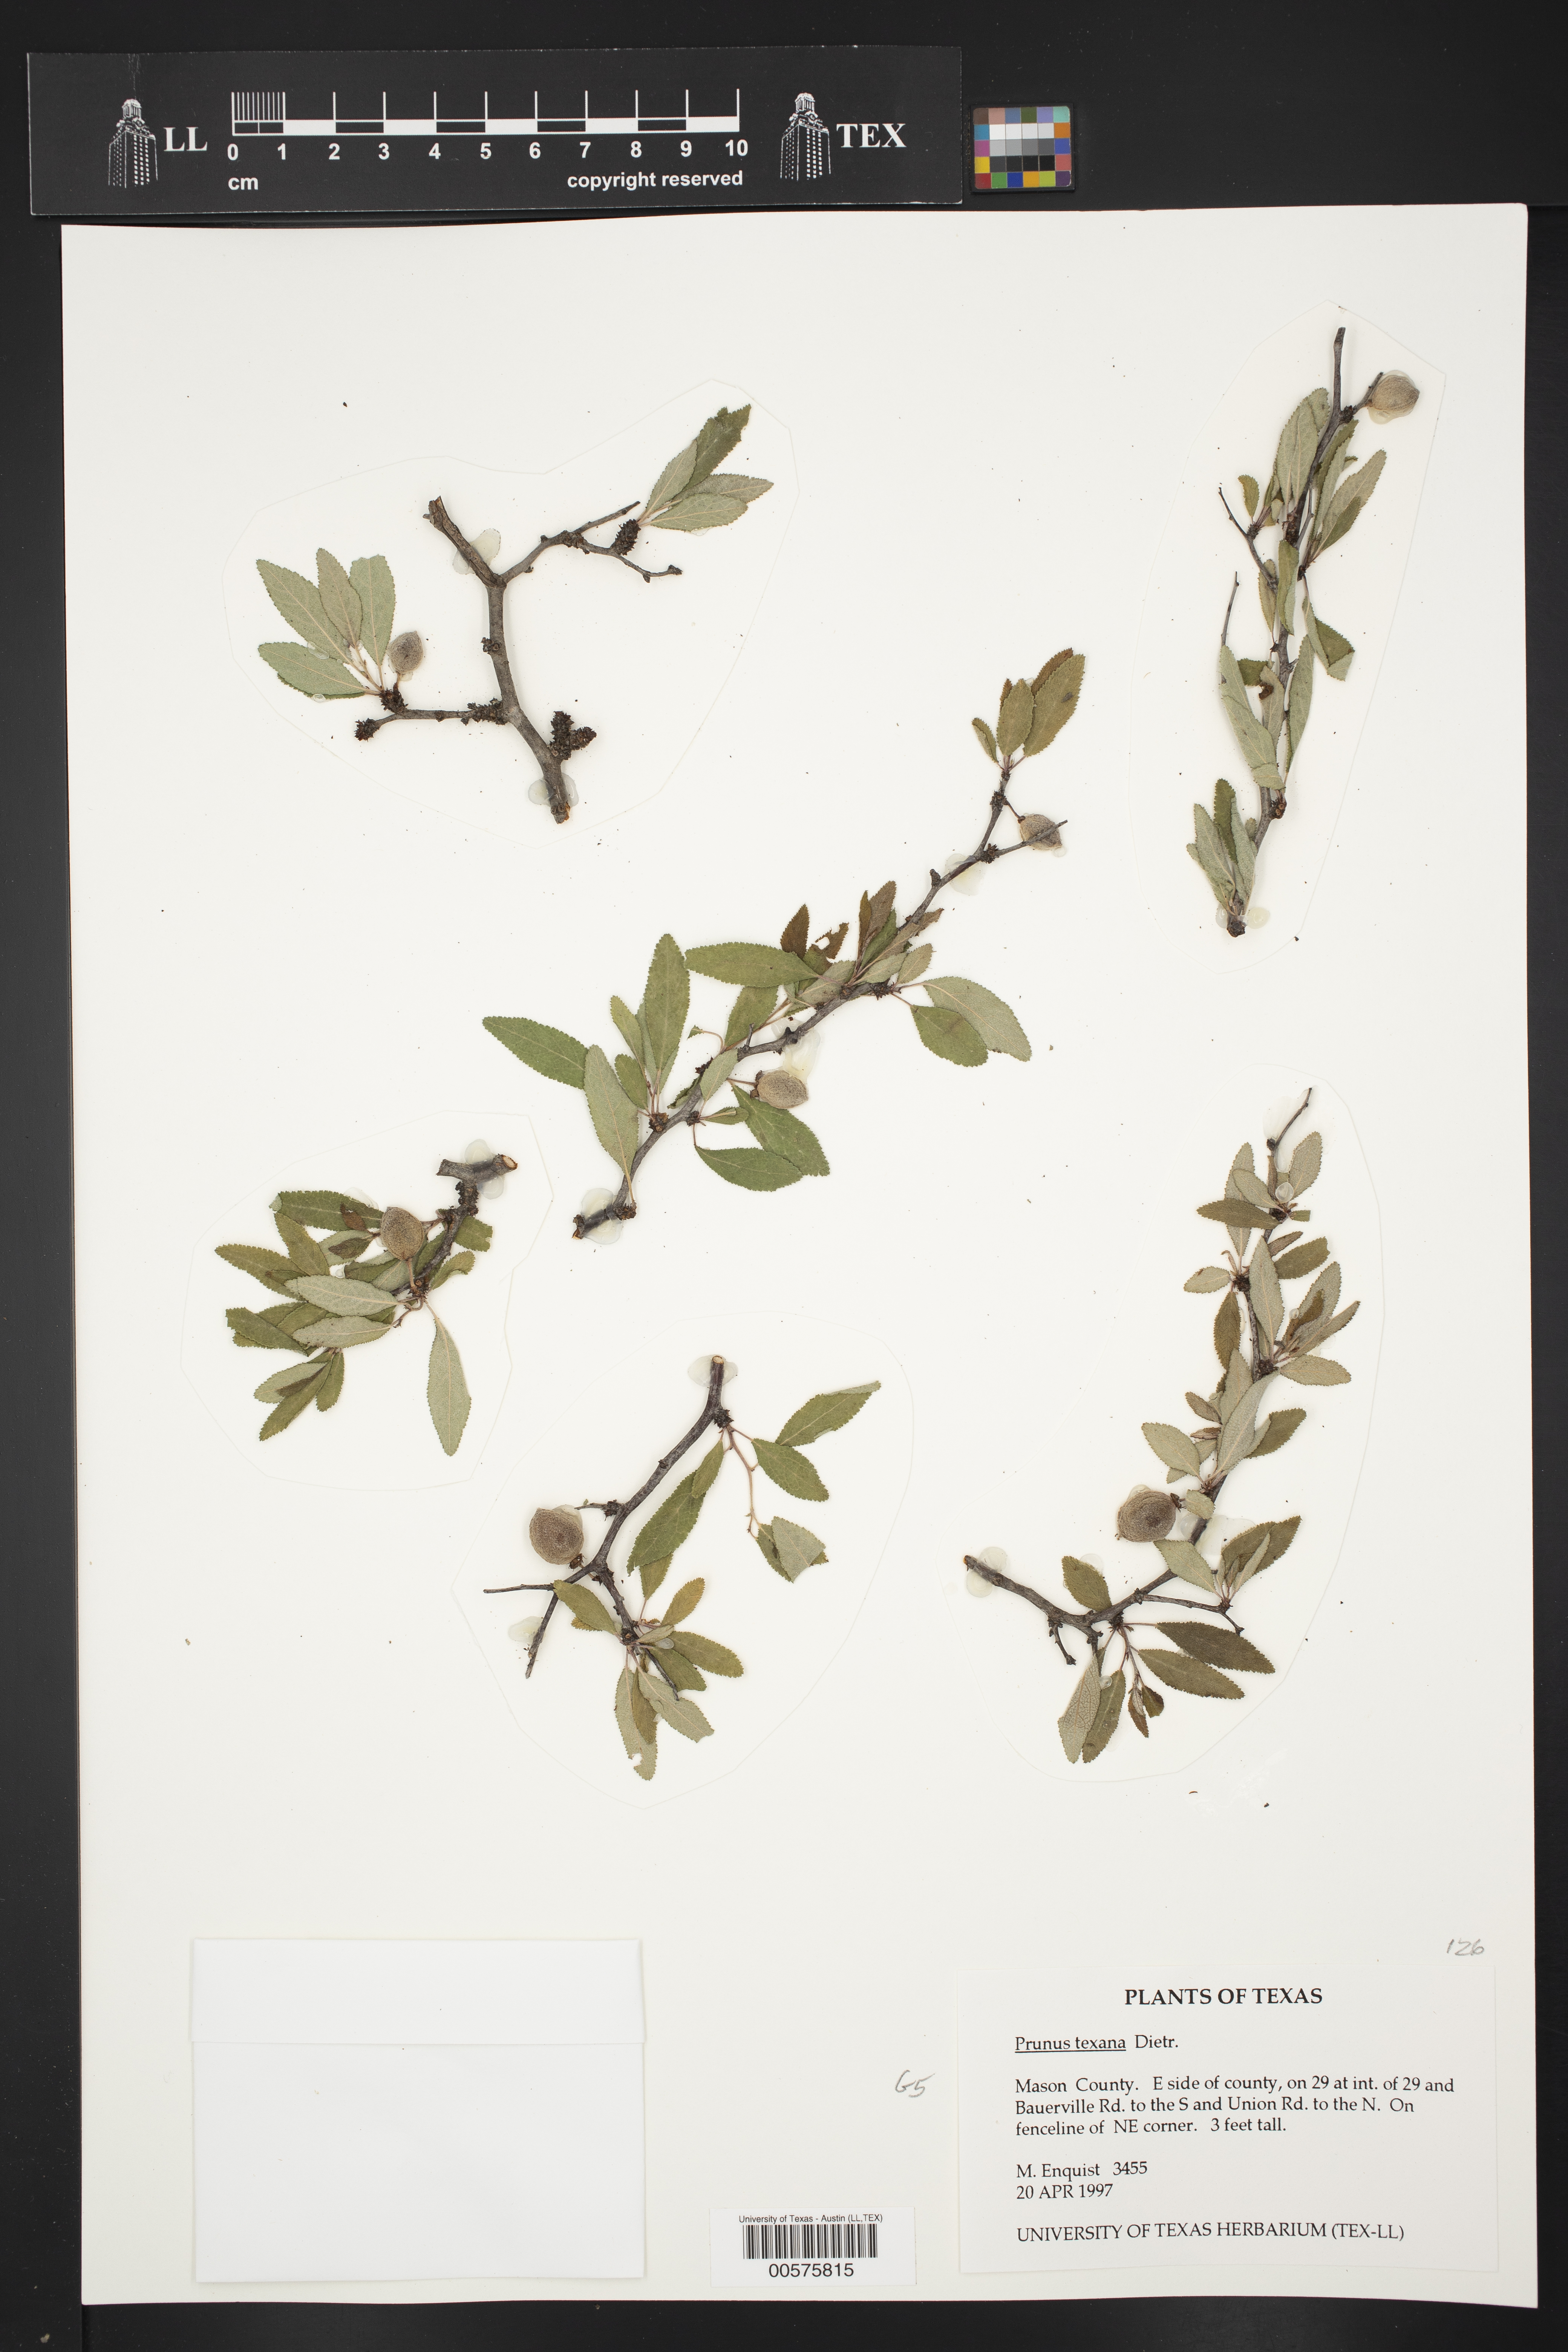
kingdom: Plantae
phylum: Tracheophyta
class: Magnoliopsida
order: Rosales
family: Rosaceae
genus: Prunus
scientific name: Prunus texana
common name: Texas almond cherry
